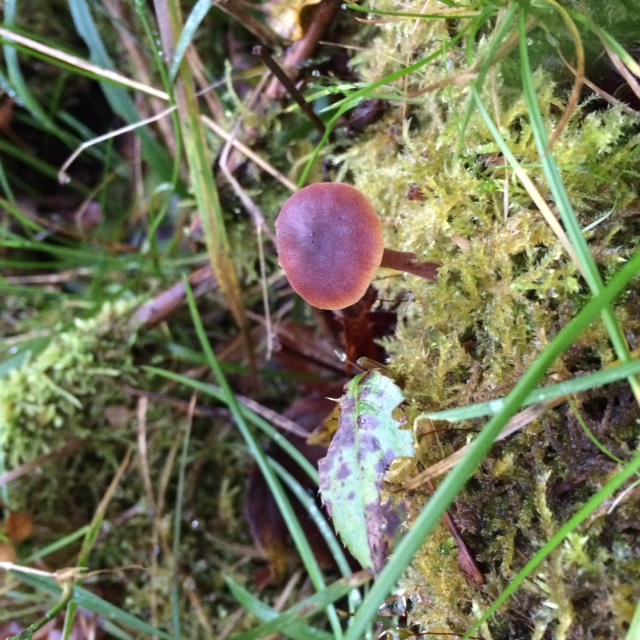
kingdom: Fungi
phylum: Basidiomycota
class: Agaricomycetes
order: Agaricales
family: Macrocystidiaceae
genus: Macrocystidia
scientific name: Macrocystidia cucumis
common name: agurkehat
